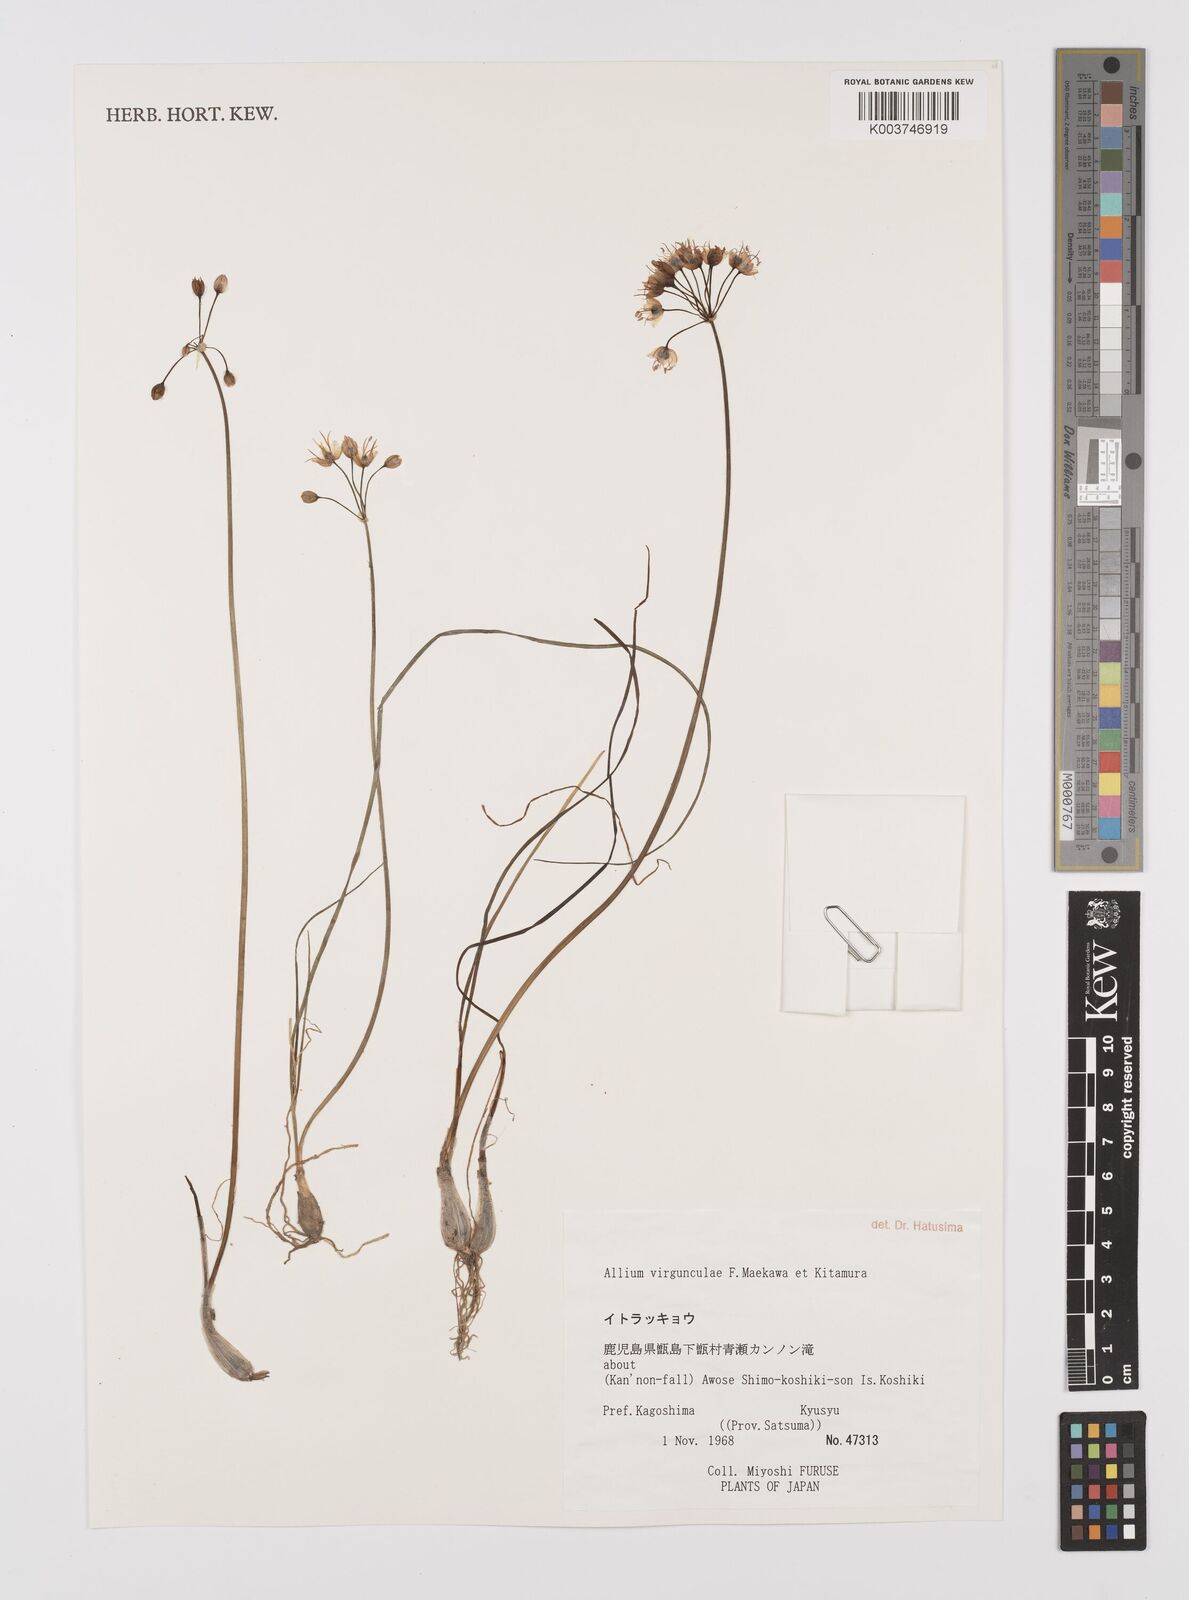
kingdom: Plantae
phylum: Tracheophyta
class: Liliopsida
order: Asparagales
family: Amaryllidaceae
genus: Allium
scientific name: Allium virgunculae
